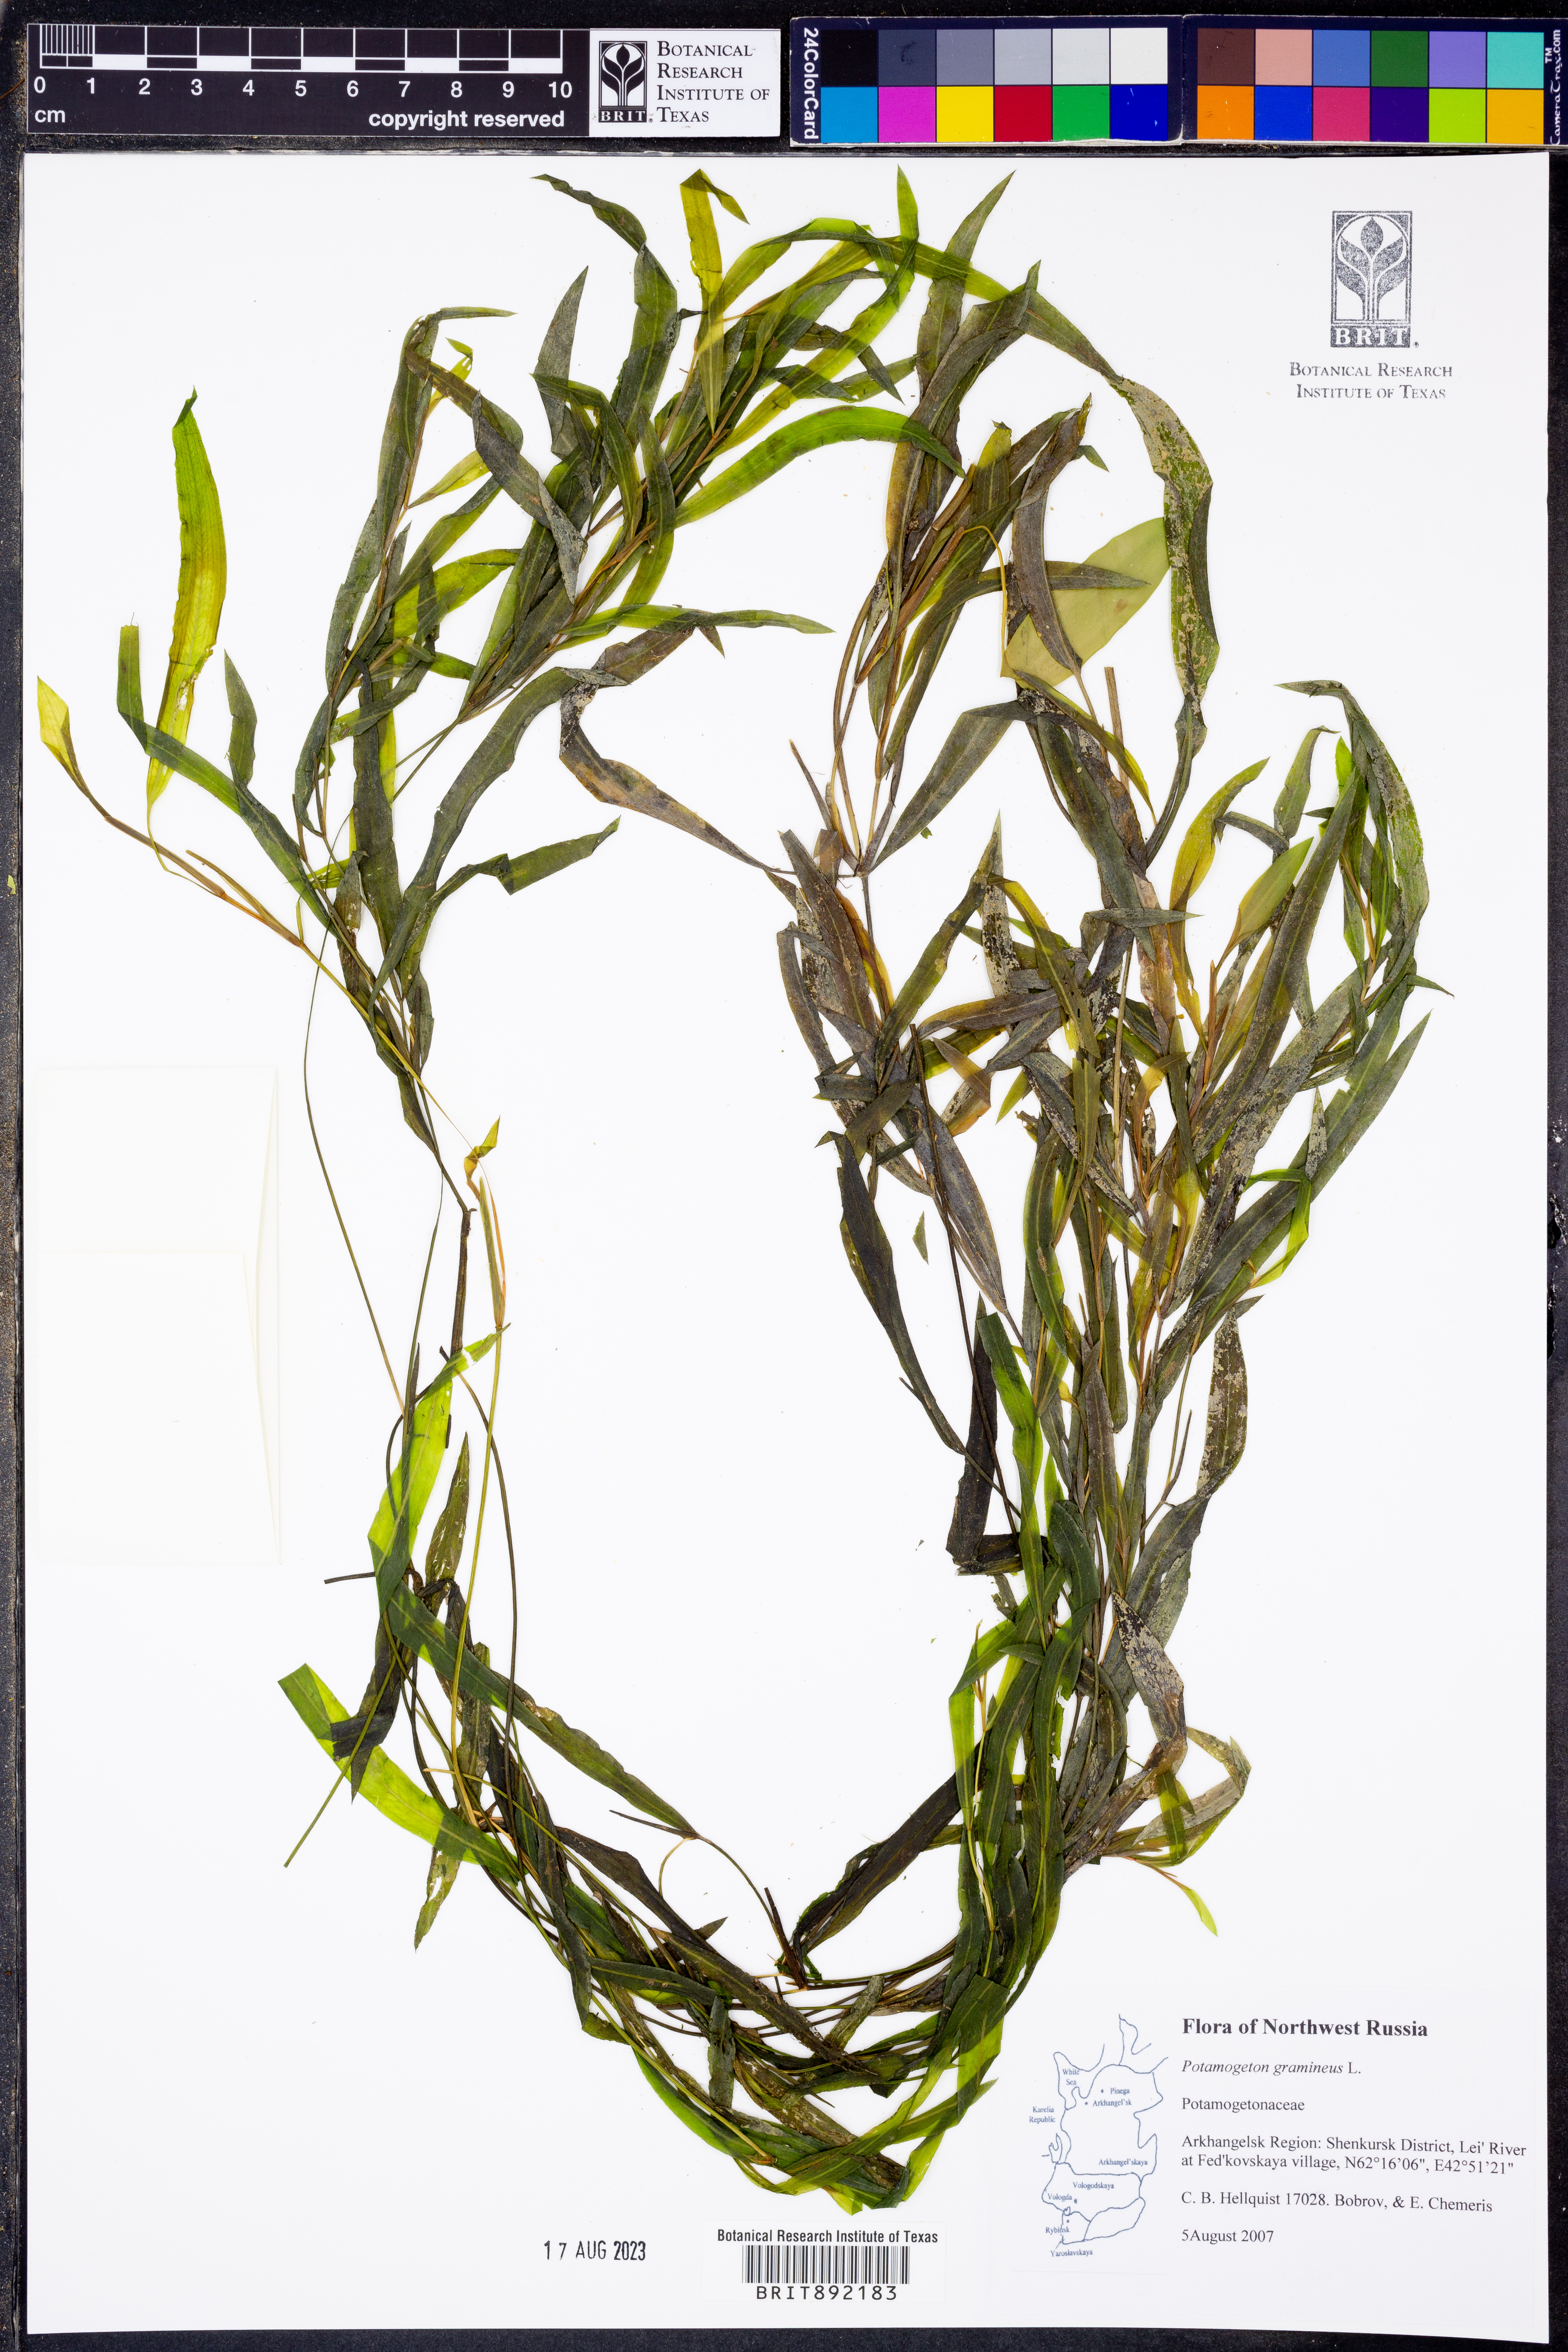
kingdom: Plantae
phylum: Tracheophyta
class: Liliopsida
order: Alismatales
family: Potamogetonaceae
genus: Potamogeton
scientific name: Potamogeton gramineus
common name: Various-leaved pondweed
